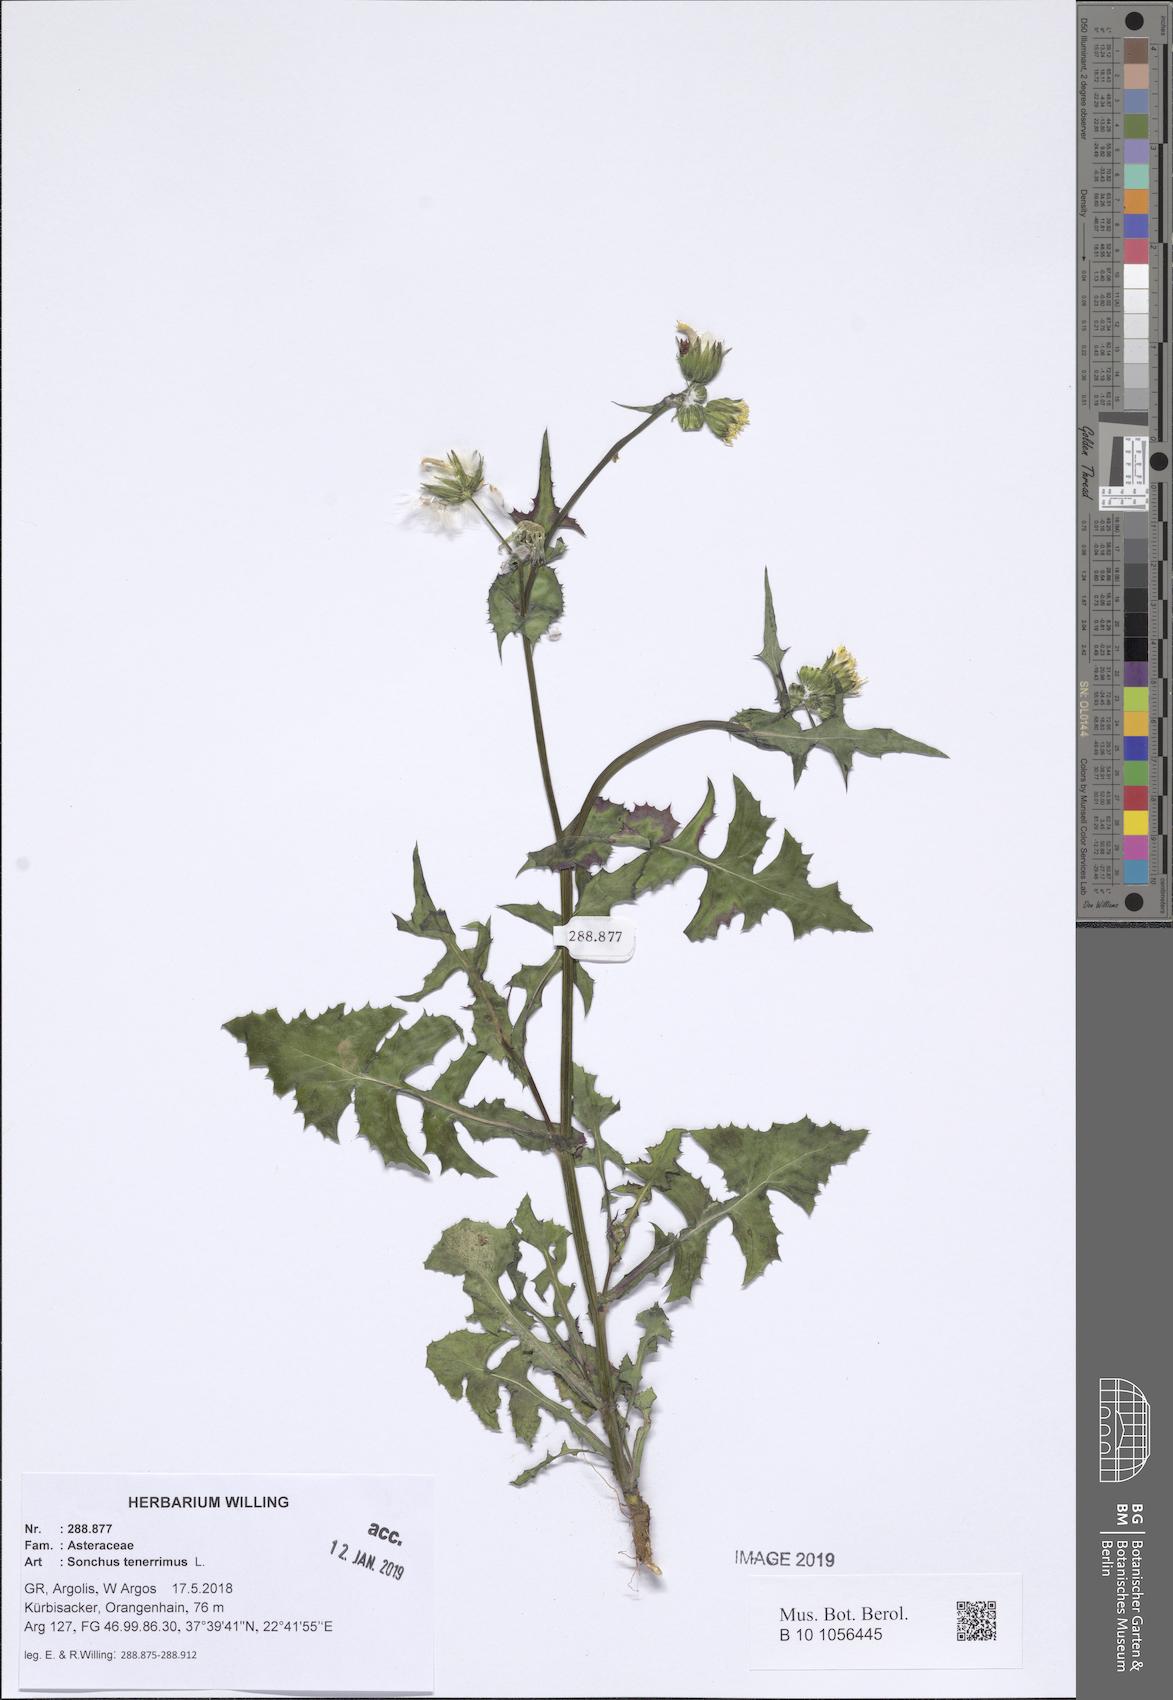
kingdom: Plantae
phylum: Tracheophyta
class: Magnoliopsida
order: Asterales
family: Asteraceae
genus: Sonchus
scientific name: Sonchus tenerrimus
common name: Clammy sowthistle
